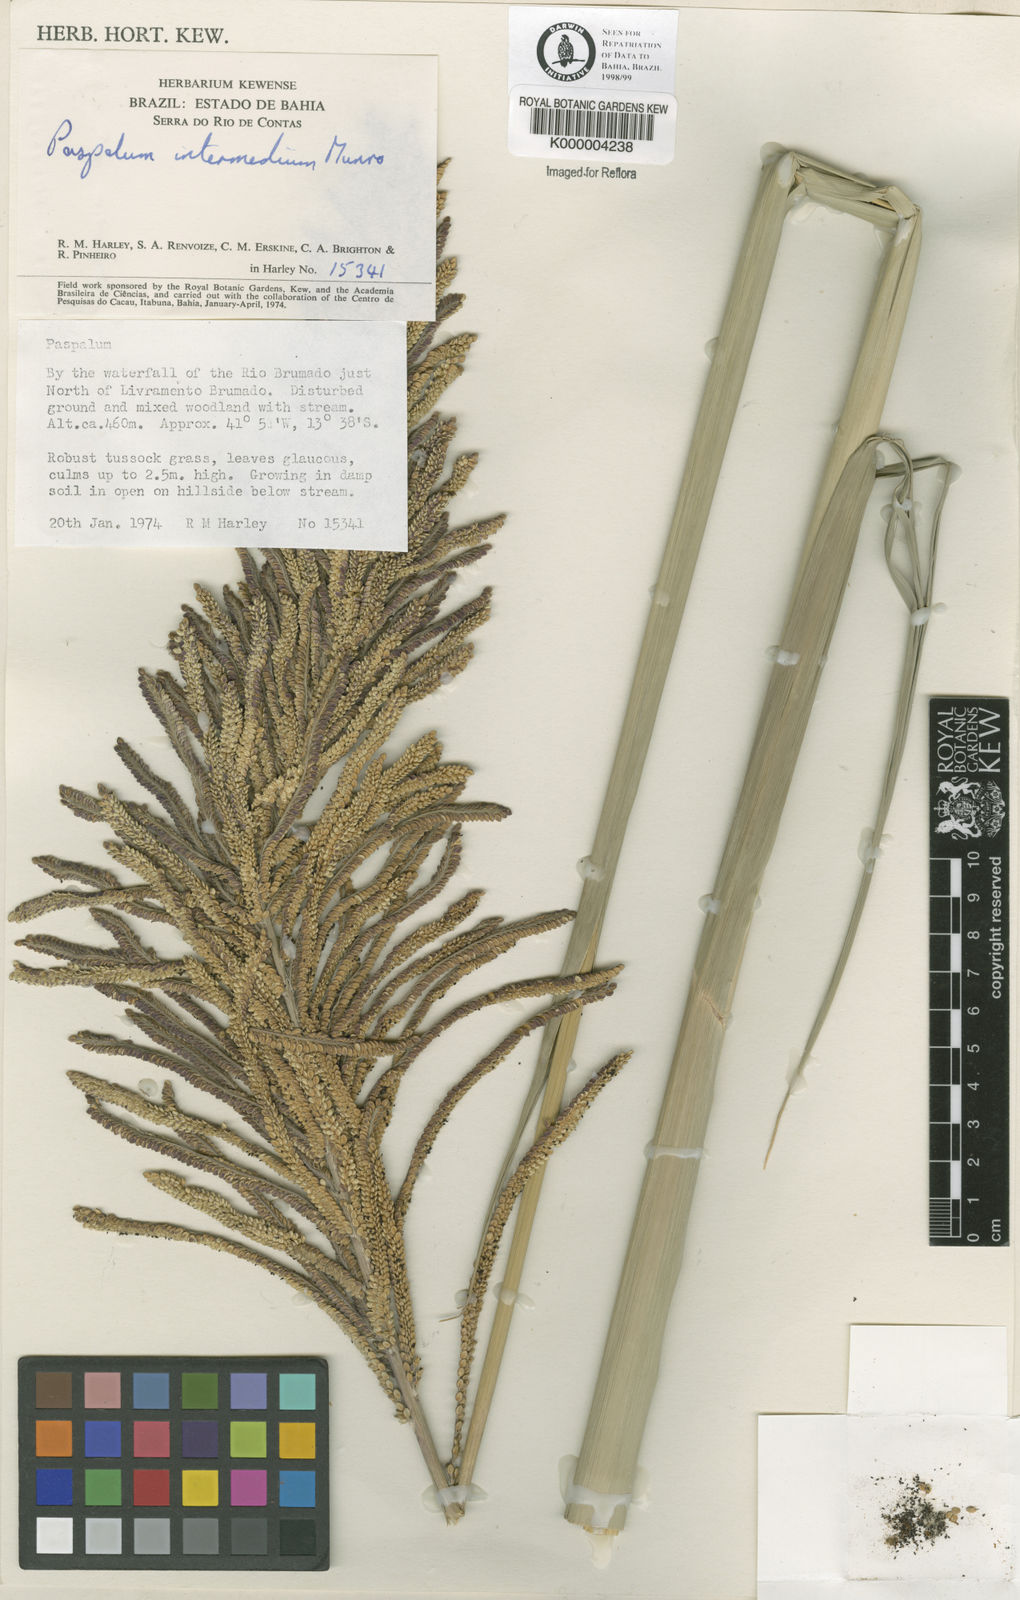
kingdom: Plantae
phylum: Tracheophyta
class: Liliopsida
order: Poales
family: Poaceae
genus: Paspalum
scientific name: Paspalum
